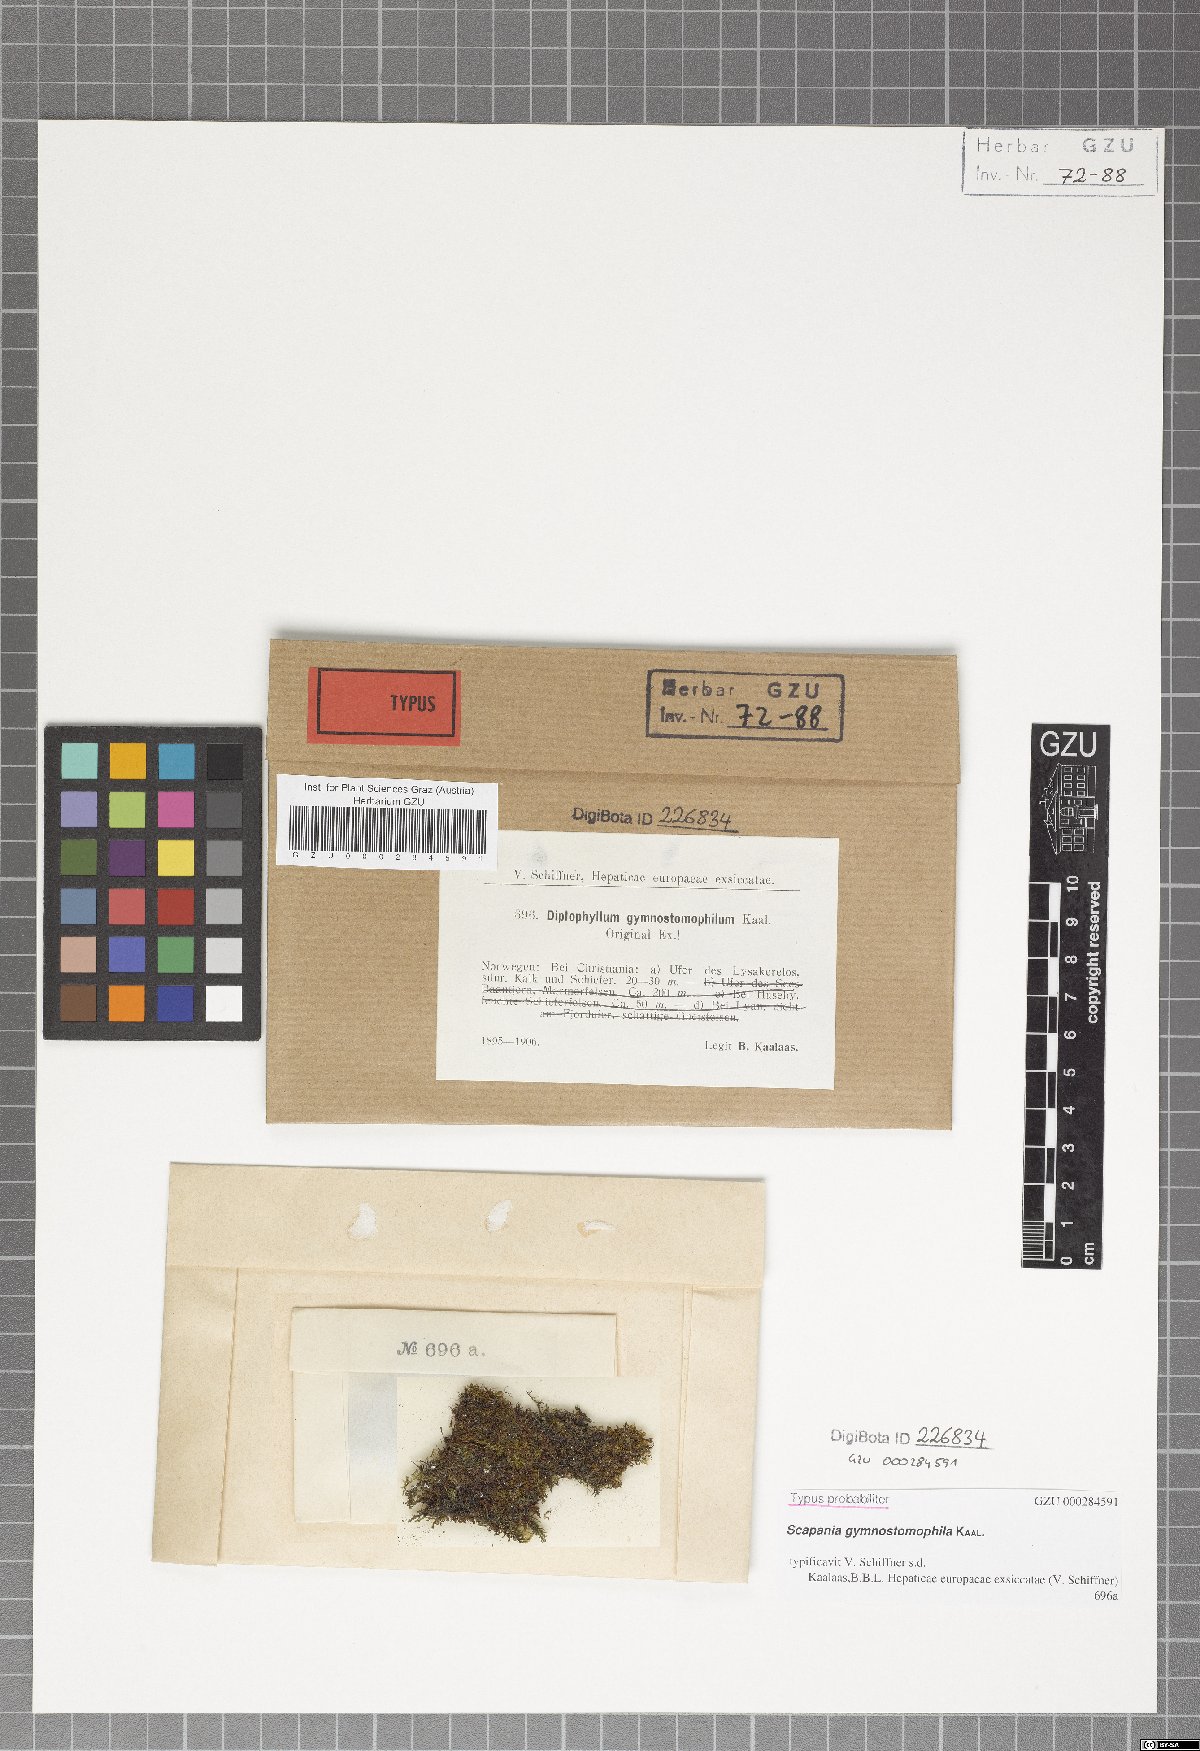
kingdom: Plantae
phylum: Marchantiophyta
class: Jungermanniopsida
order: Jungermanniales
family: Scapaniaceae
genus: Scapania
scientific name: Scapania gymnostomophila
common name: Narrow-lobed earwort
